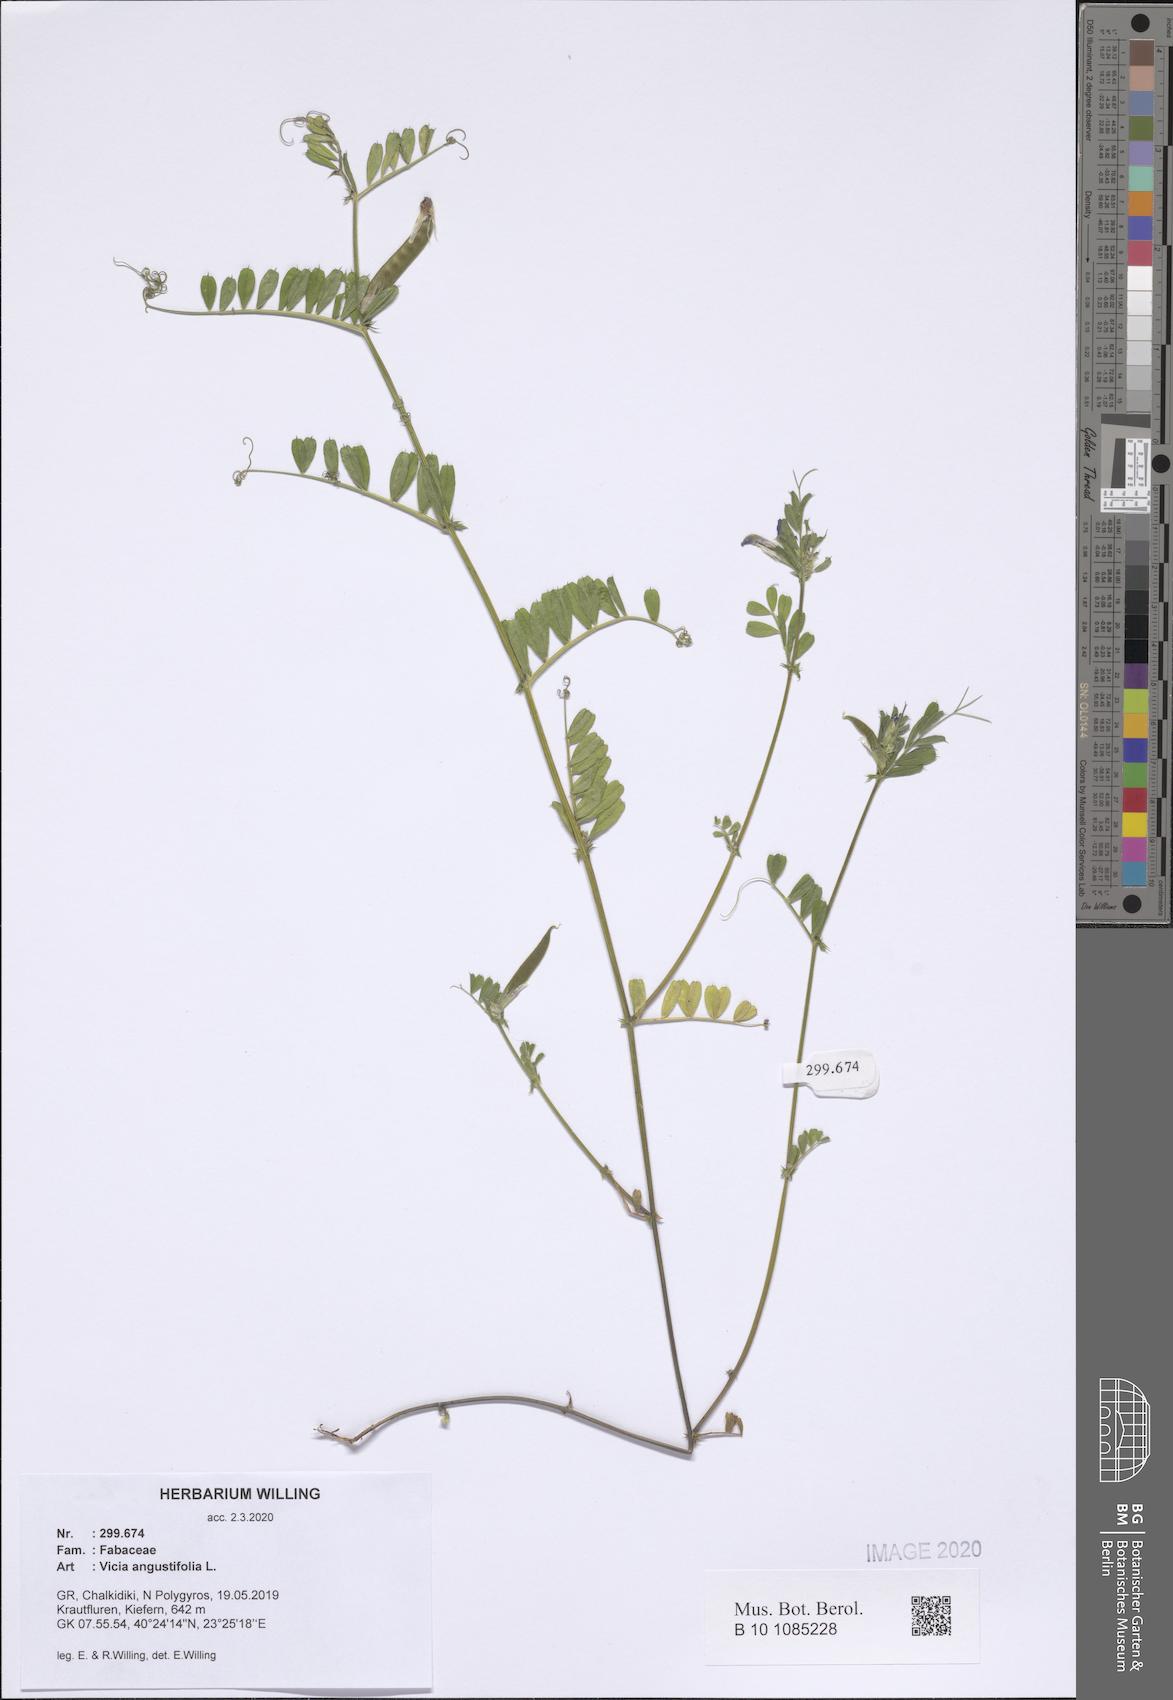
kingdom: Plantae
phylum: Tracheophyta
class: Magnoliopsida
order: Fabales
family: Fabaceae
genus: Vicia
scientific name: Vicia sativa
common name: Garden vetch
